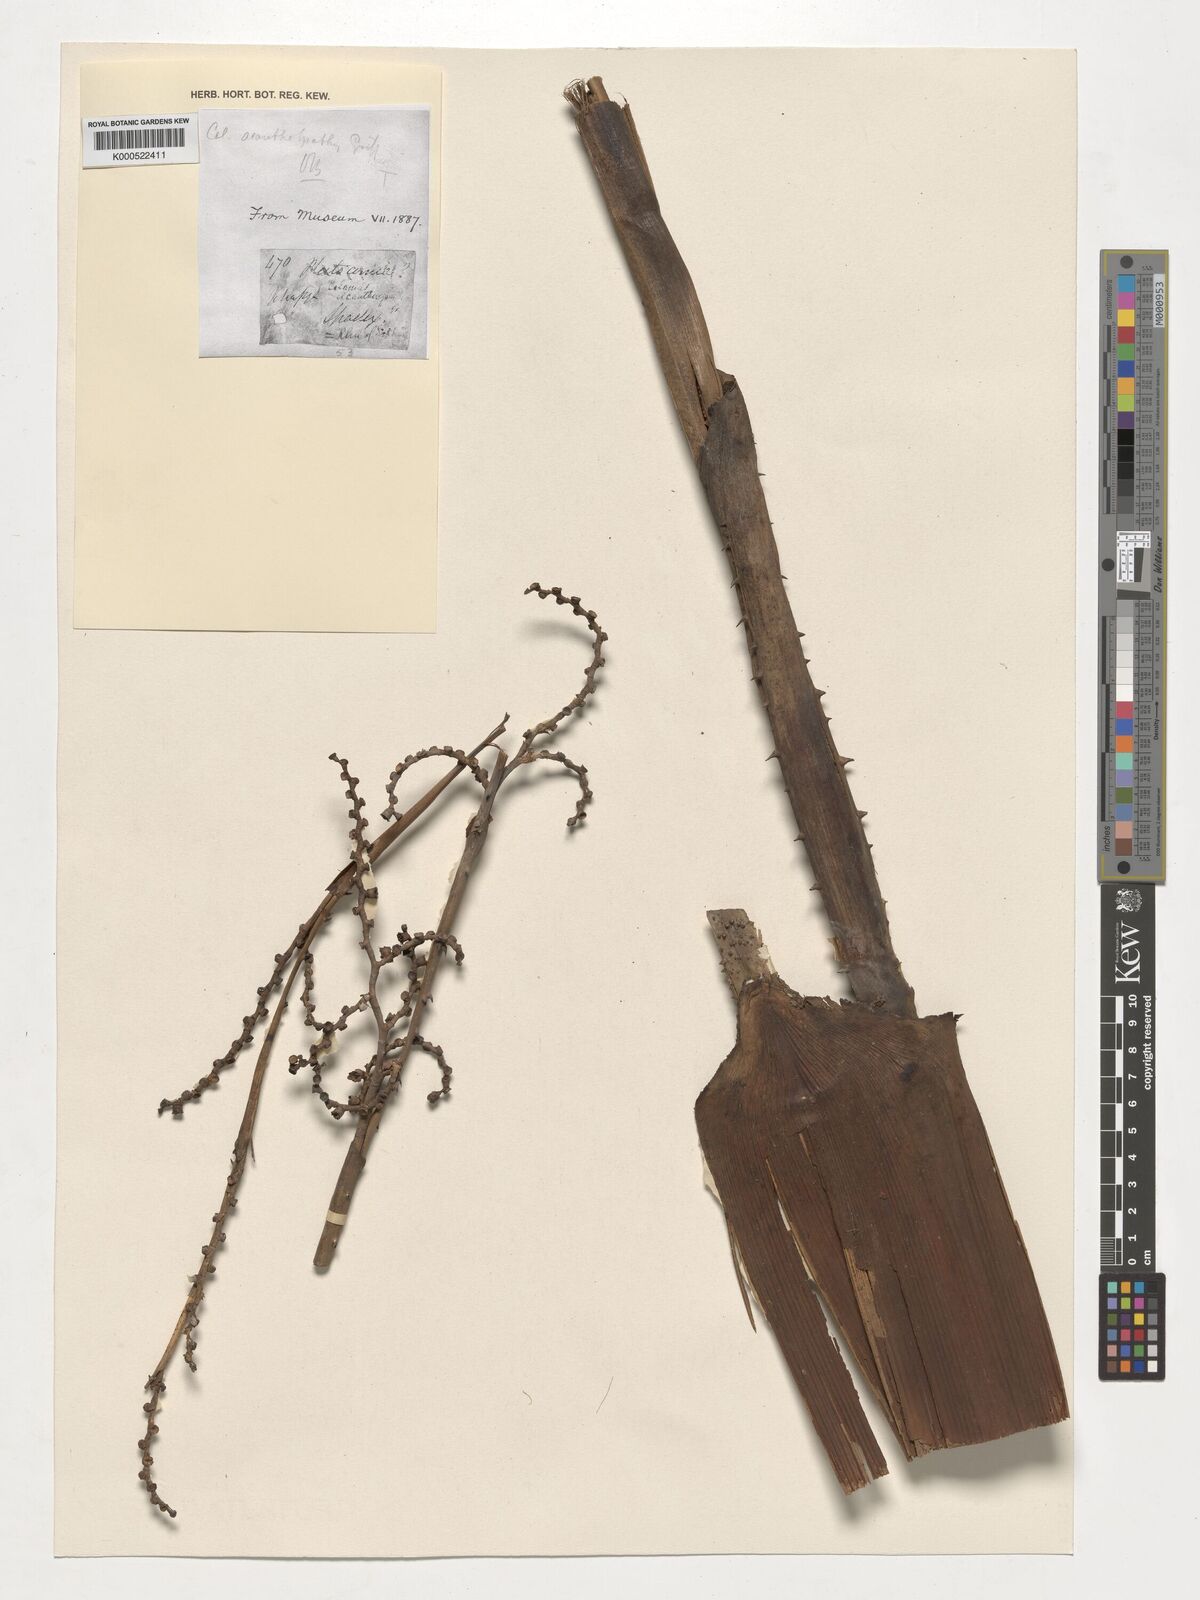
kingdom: Plantae
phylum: Tracheophyta
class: Liliopsida
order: Arecales
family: Arecaceae
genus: Calamus
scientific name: Calamus acanthospathus
